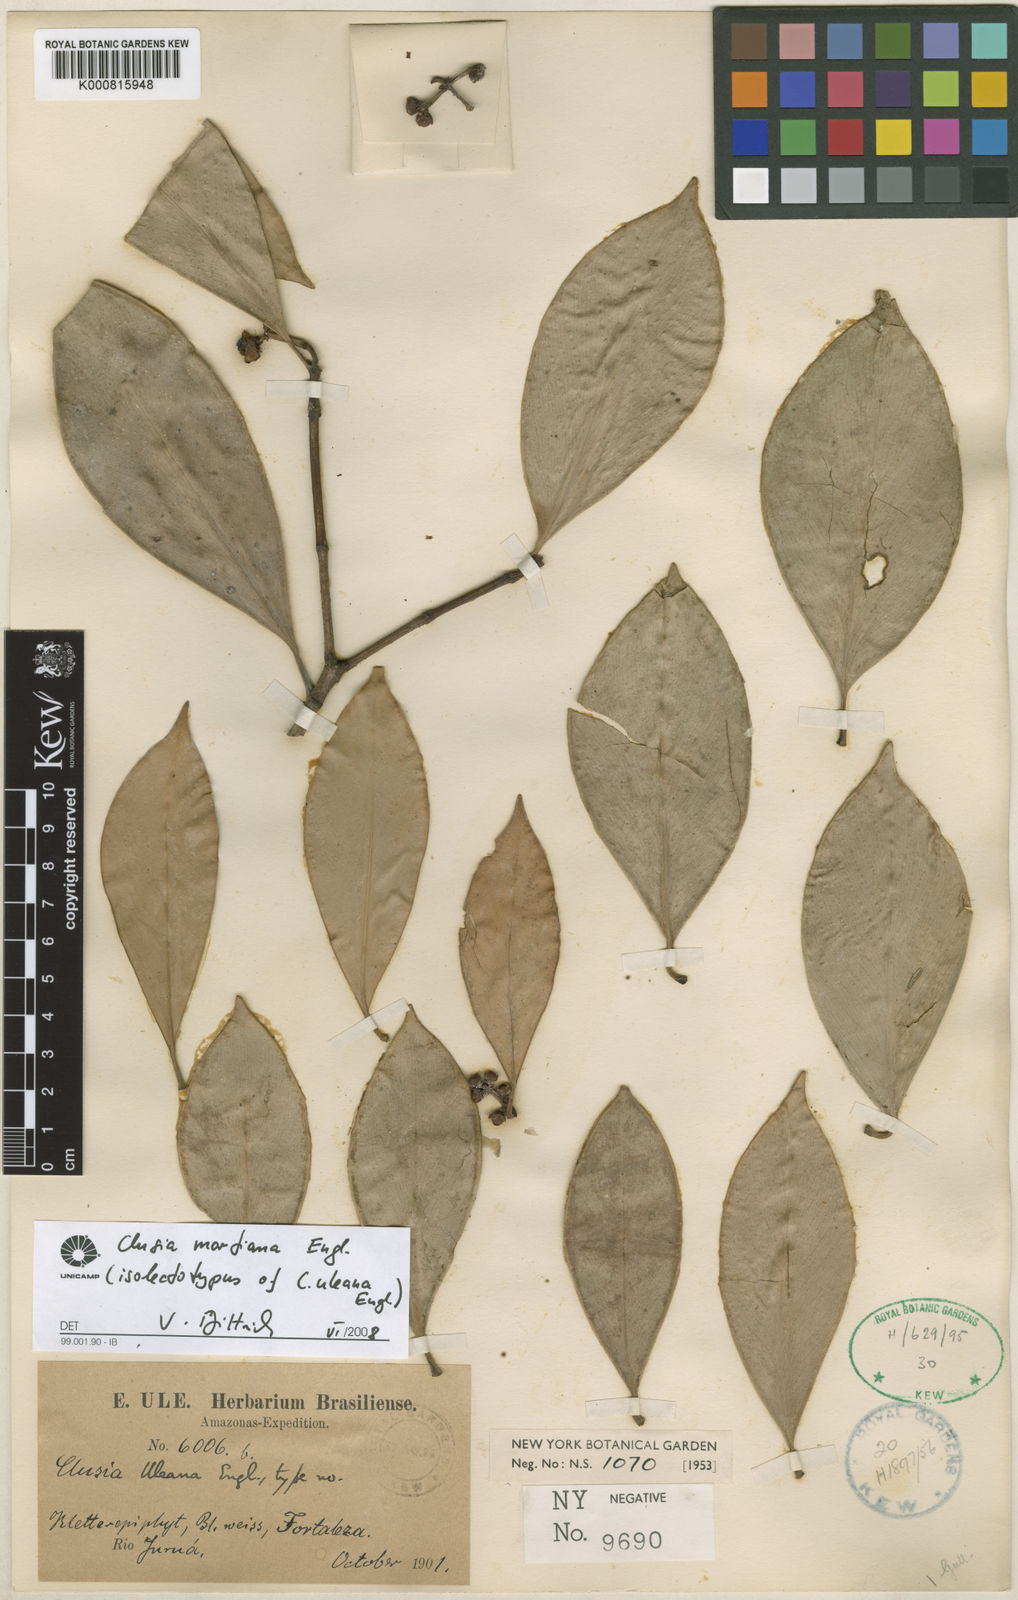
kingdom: Plantae
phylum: Tracheophyta
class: Magnoliopsida
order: Malpighiales
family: Clusiaceae
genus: Clusia
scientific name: Clusia martiana
